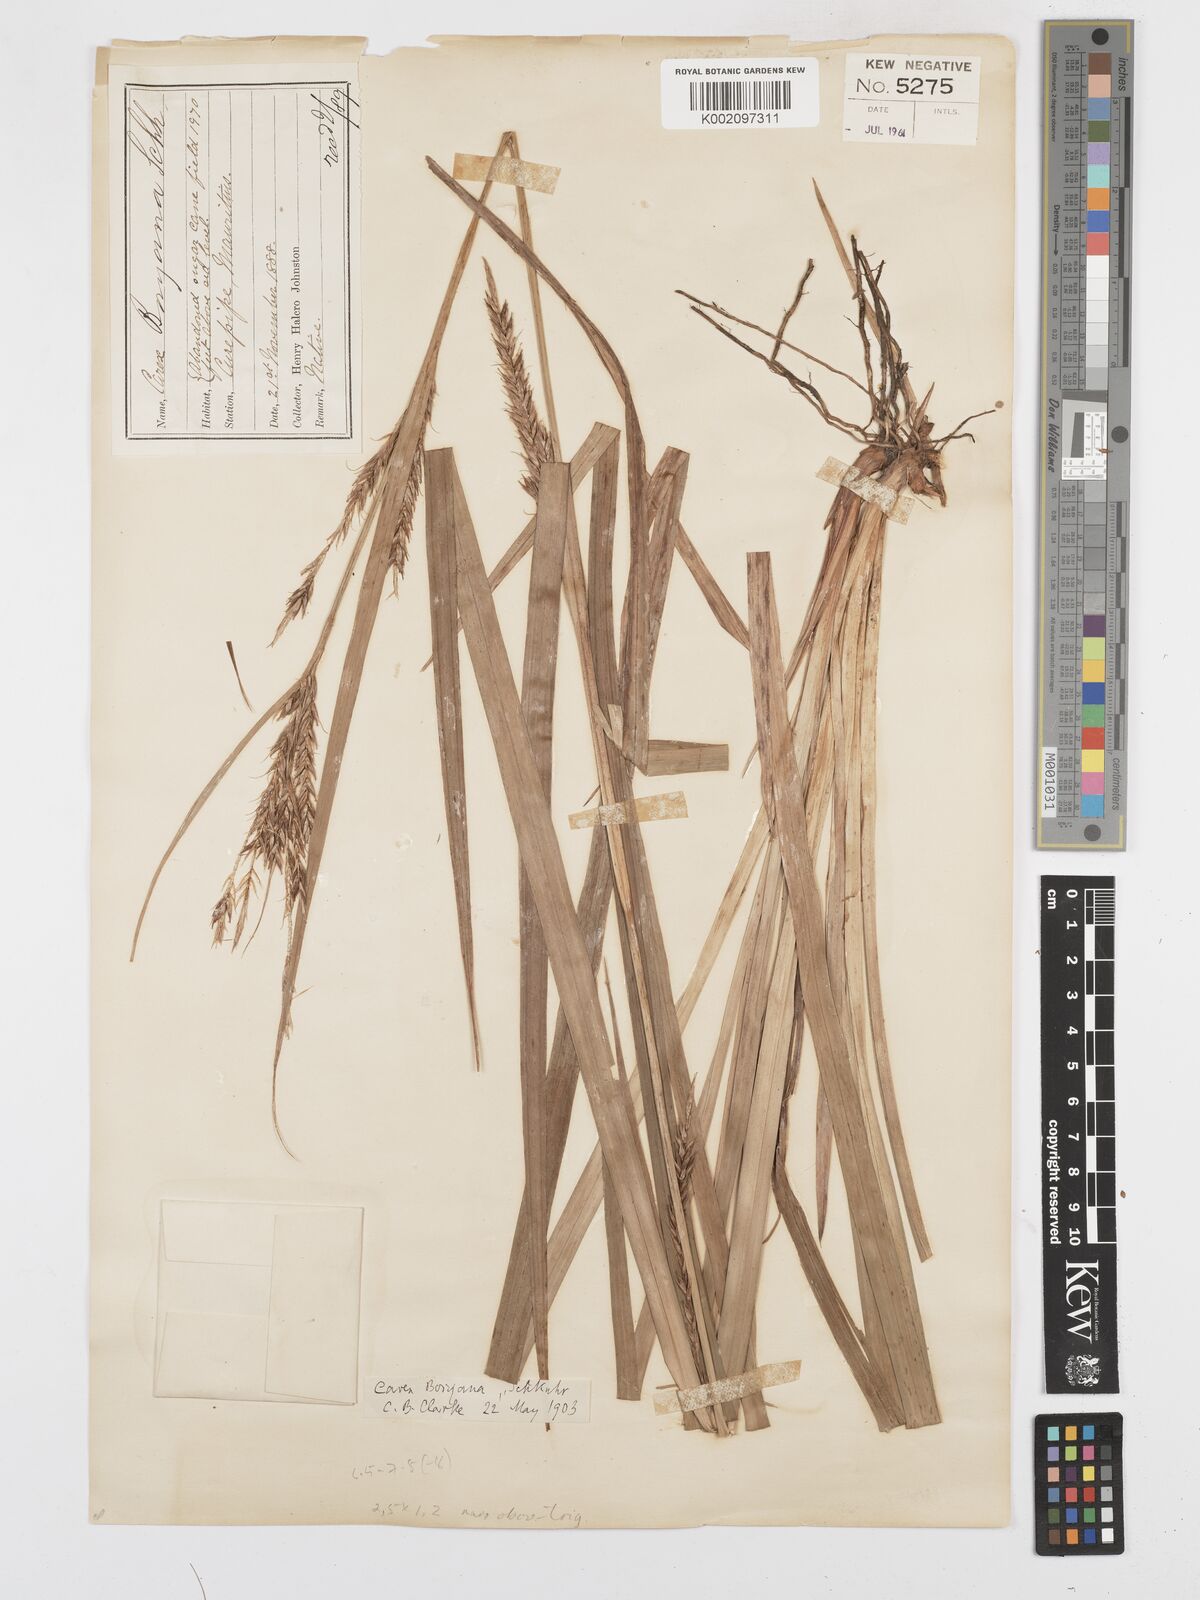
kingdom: Plantae
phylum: Tracheophyta
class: Liliopsida
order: Poales
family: Cyperaceae
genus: Carex
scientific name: Carex boryana
